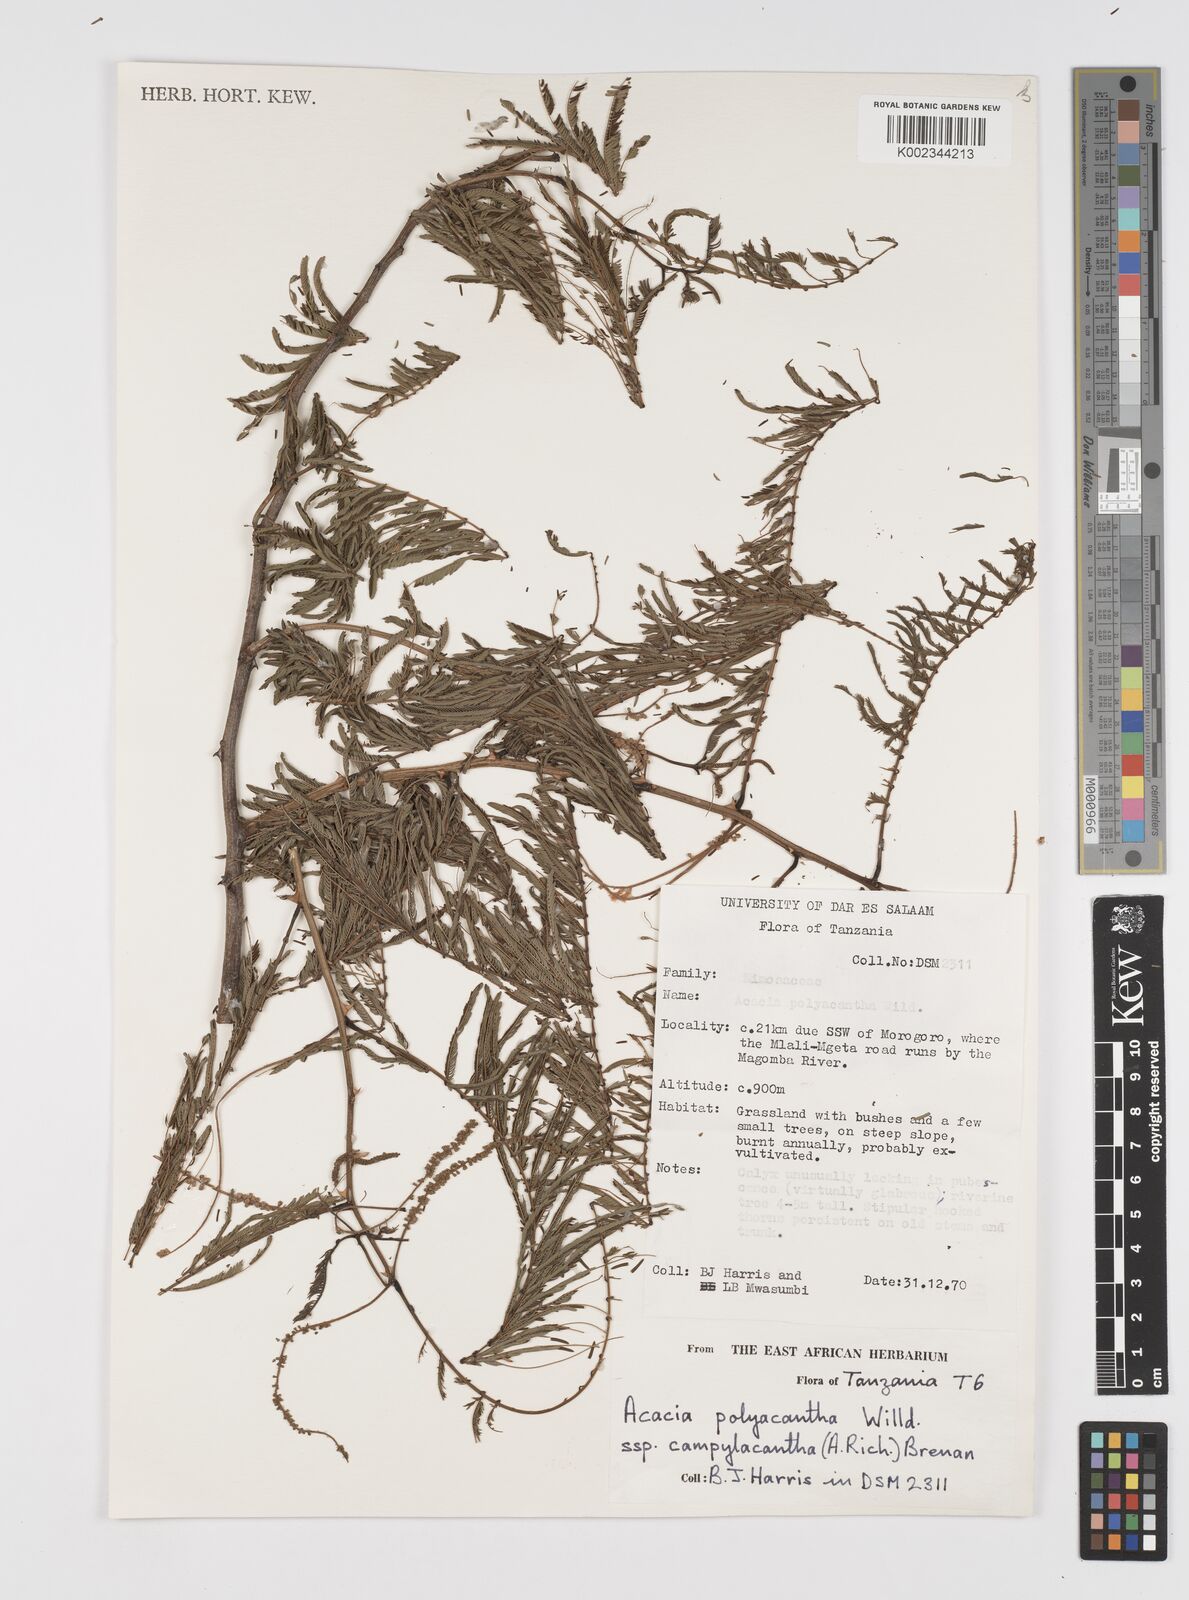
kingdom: Plantae
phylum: Tracheophyta
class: Magnoliopsida
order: Fabales
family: Fabaceae
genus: Senegalia
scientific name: Senegalia polyacantha
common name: Whitethorn
